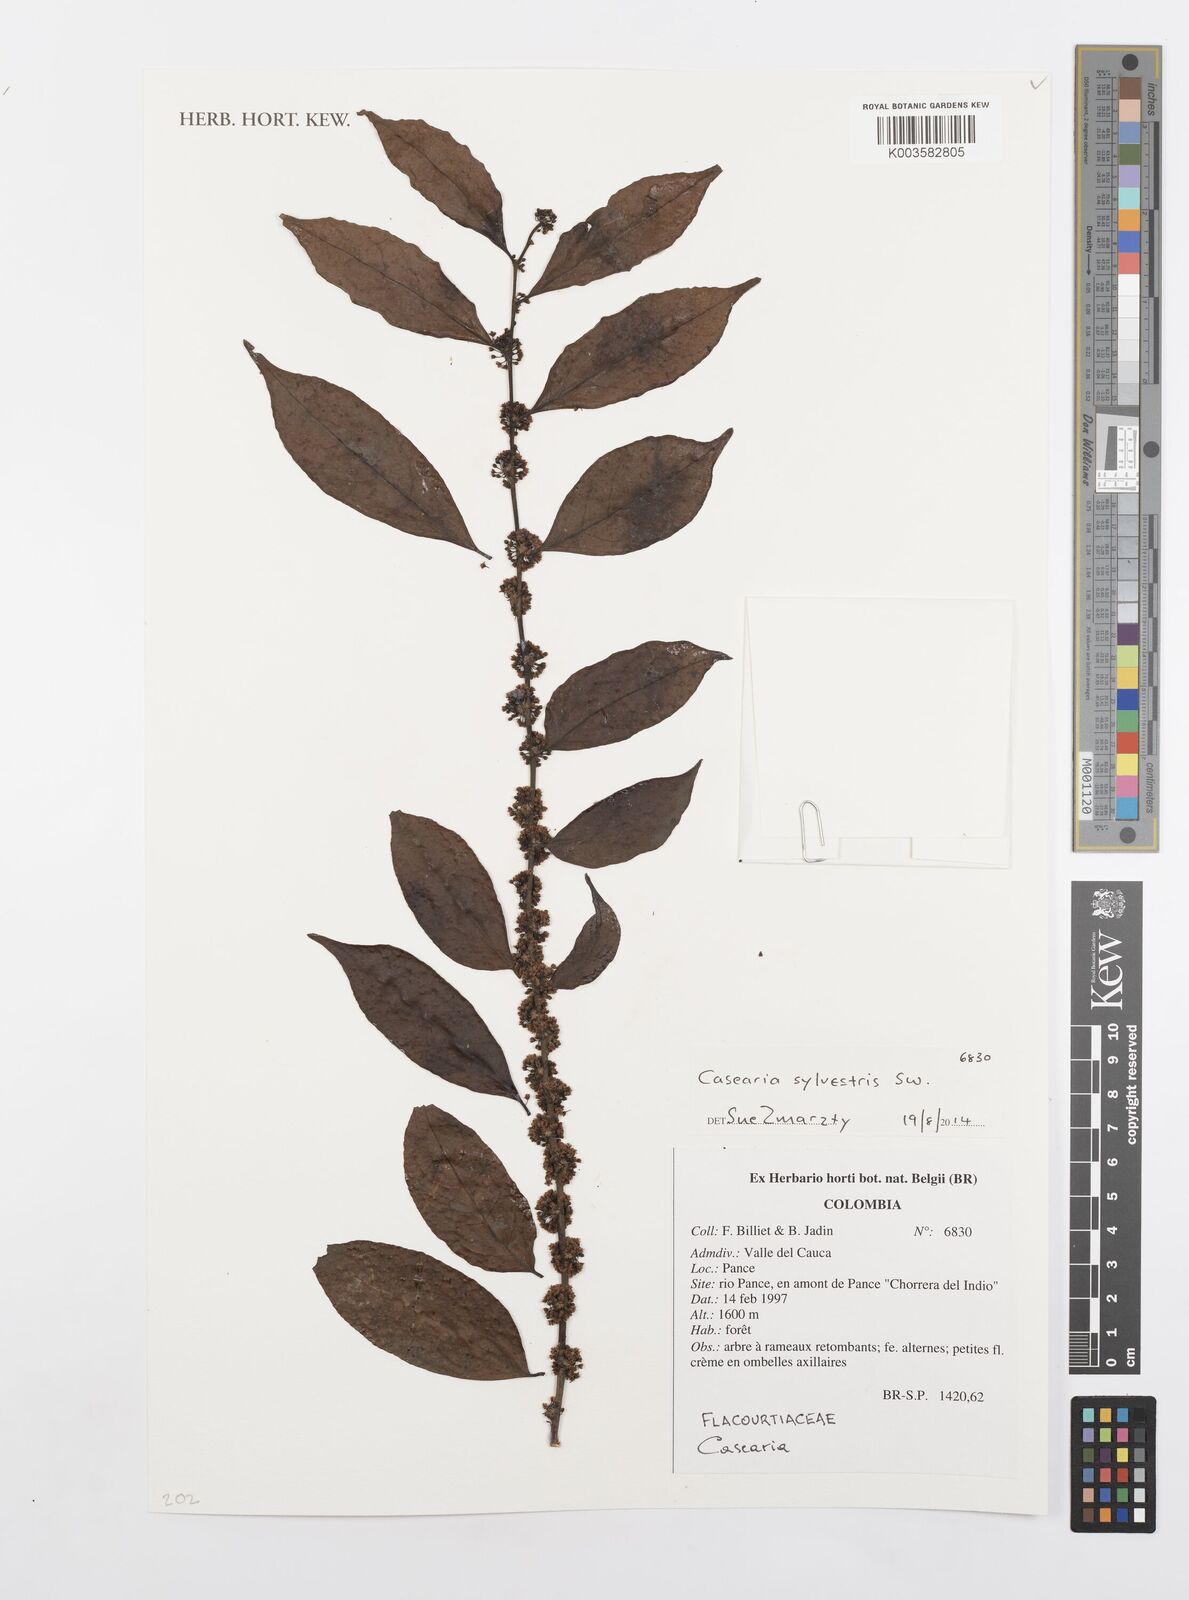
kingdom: Plantae
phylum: Tracheophyta
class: Magnoliopsida
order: Malpighiales
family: Salicaceae
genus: Casearia
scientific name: Casearia sylvestris
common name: Wild sage
